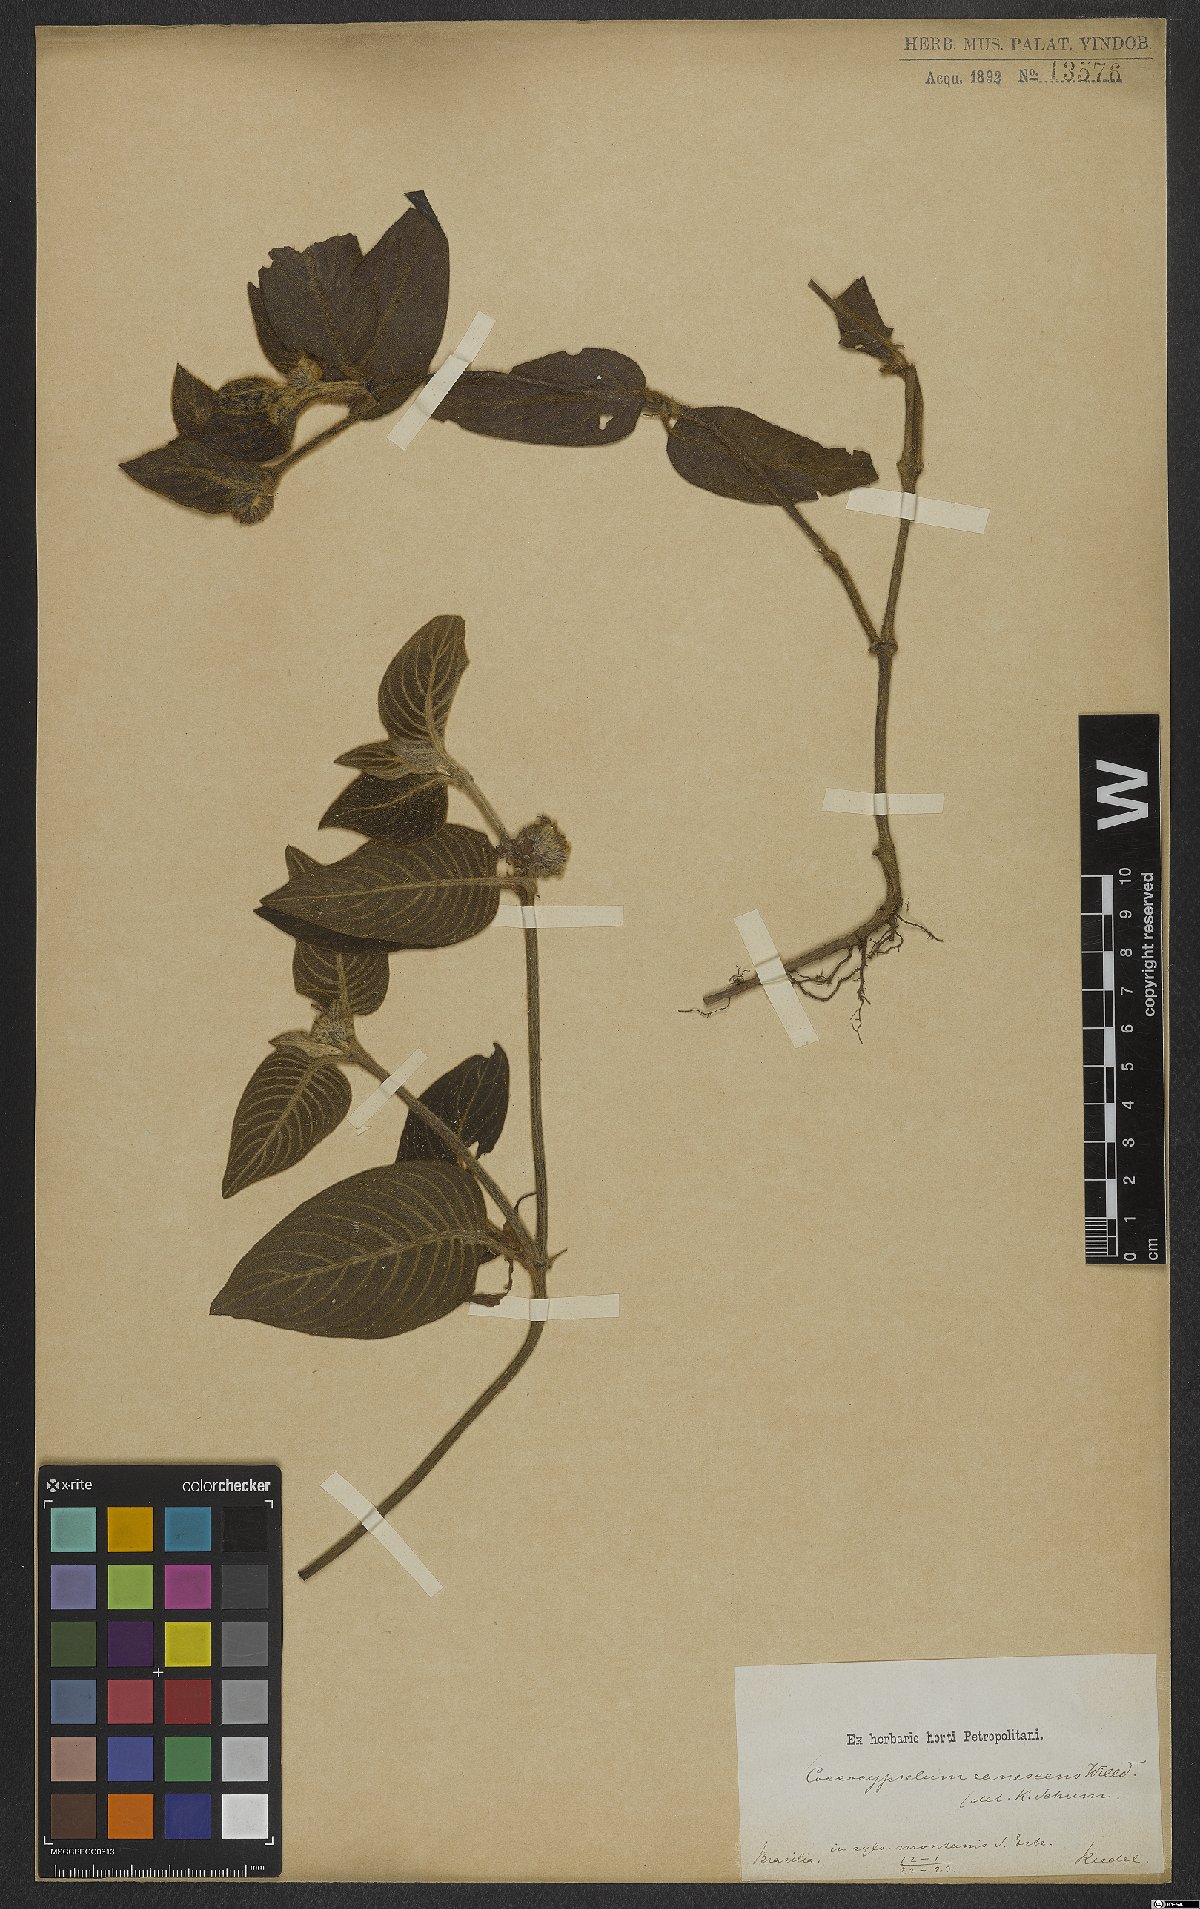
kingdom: Plantae
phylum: Tracheophyta
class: Magnoliopsida
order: Gentianales
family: Rubiaceae
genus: Coccocypselum
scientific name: Coccocypselum lanceolatum
